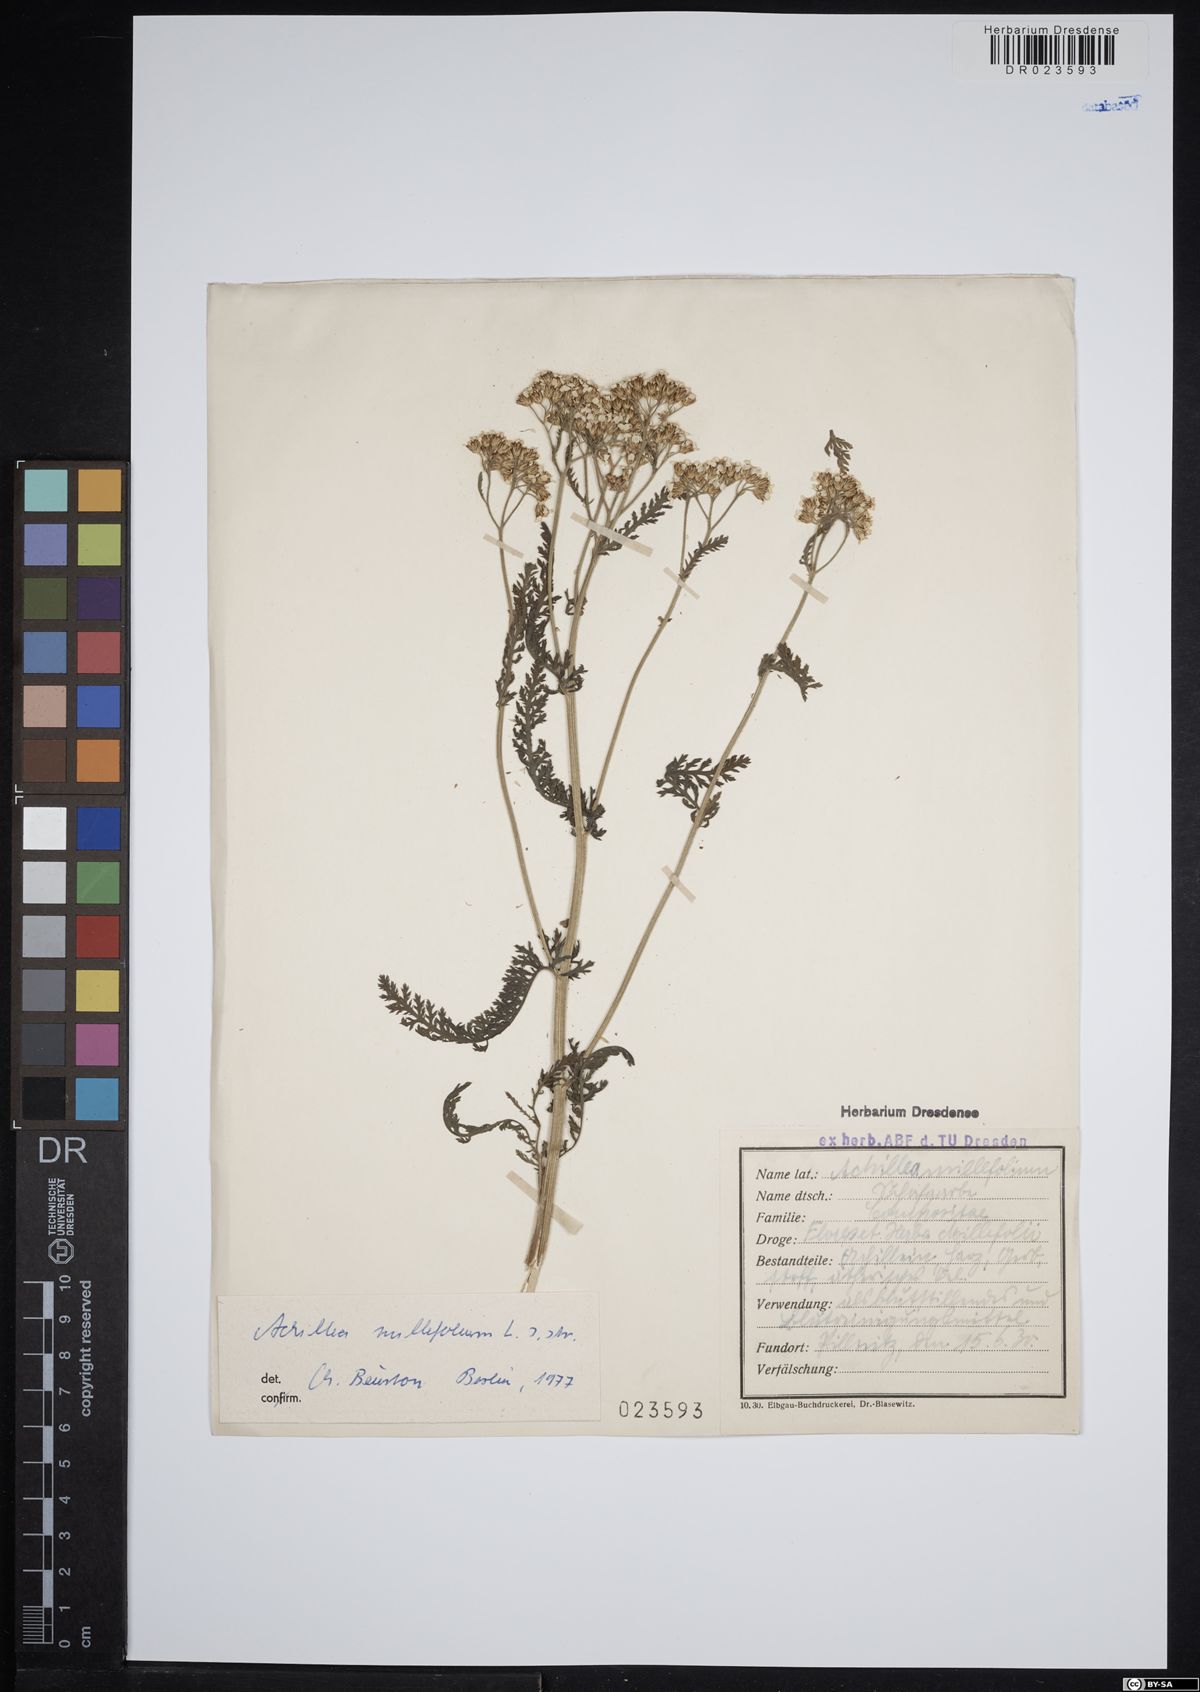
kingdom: Plantae
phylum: Tracheophyta
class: Magnoliopsida
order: Asterales
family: Asteraceae
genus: Achillea
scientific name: Achillea millefolium
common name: Yarrow
